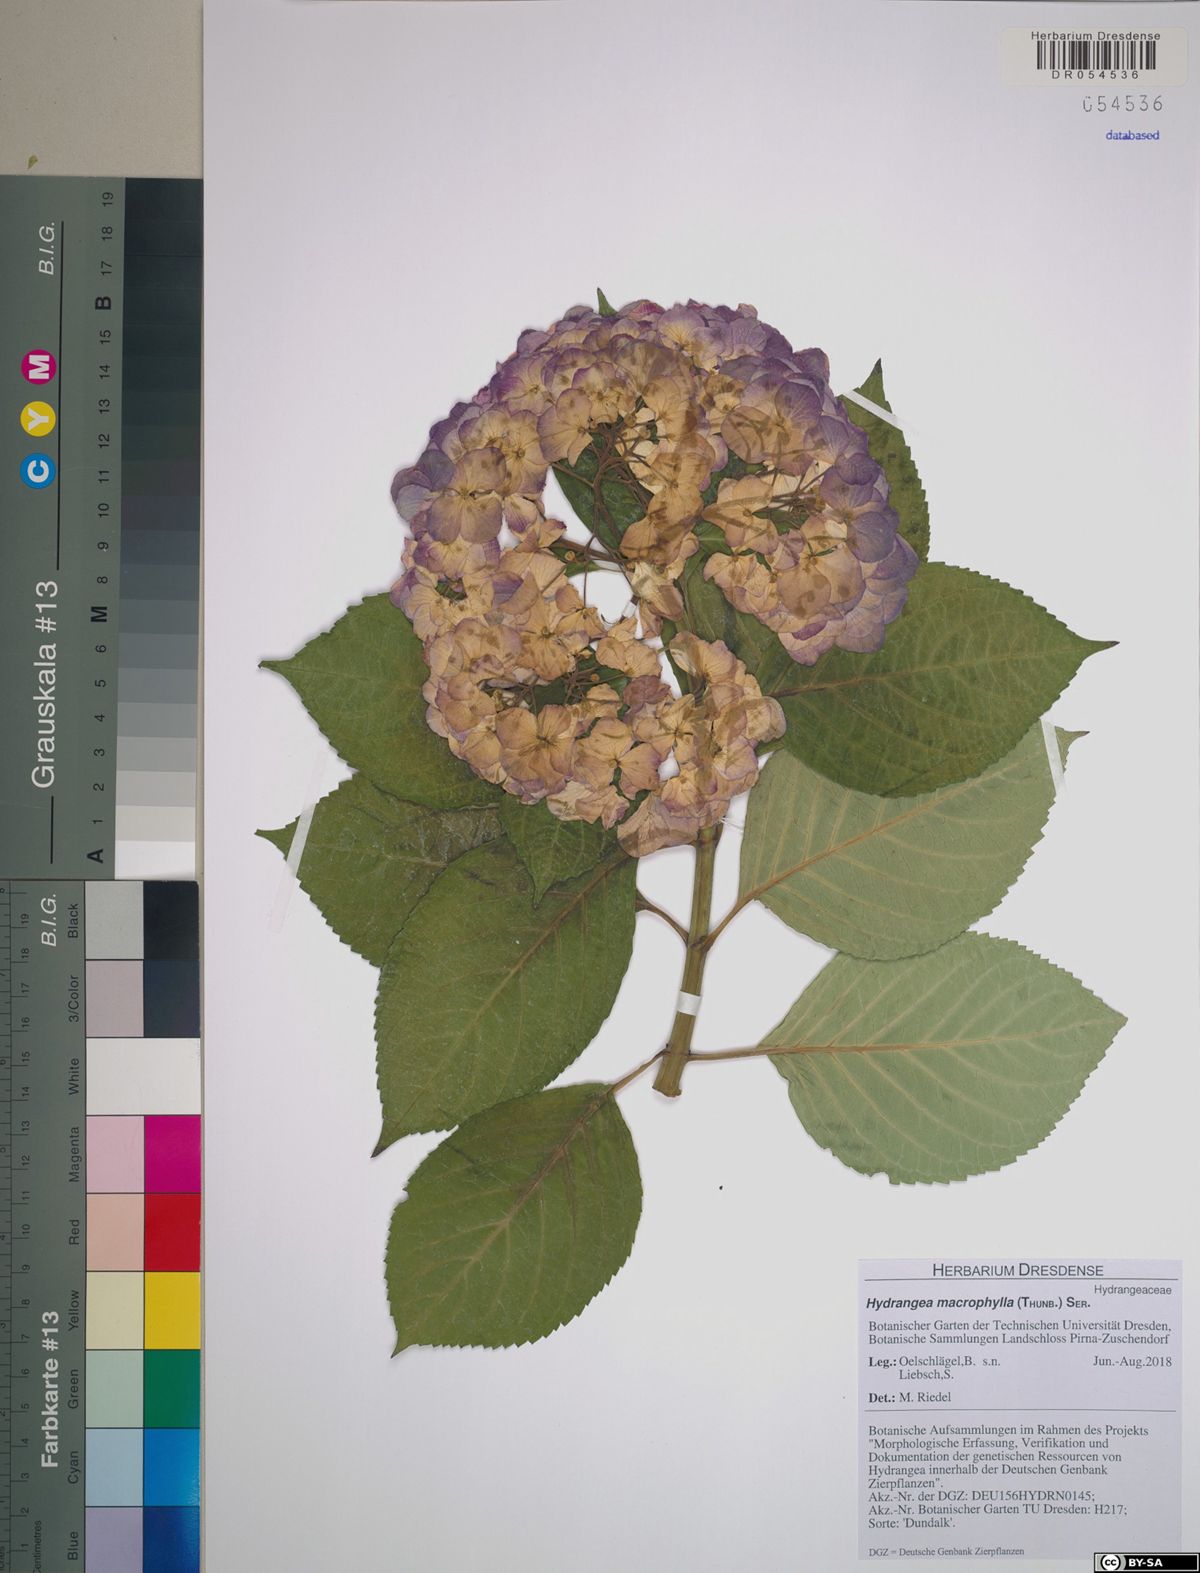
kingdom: Plantae
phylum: Tracheophyta
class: Magnoliopsida
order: Cornales
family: Hydrangeaceae
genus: Hydrangea
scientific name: Hydrangea macrophylla
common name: Hydrangea
